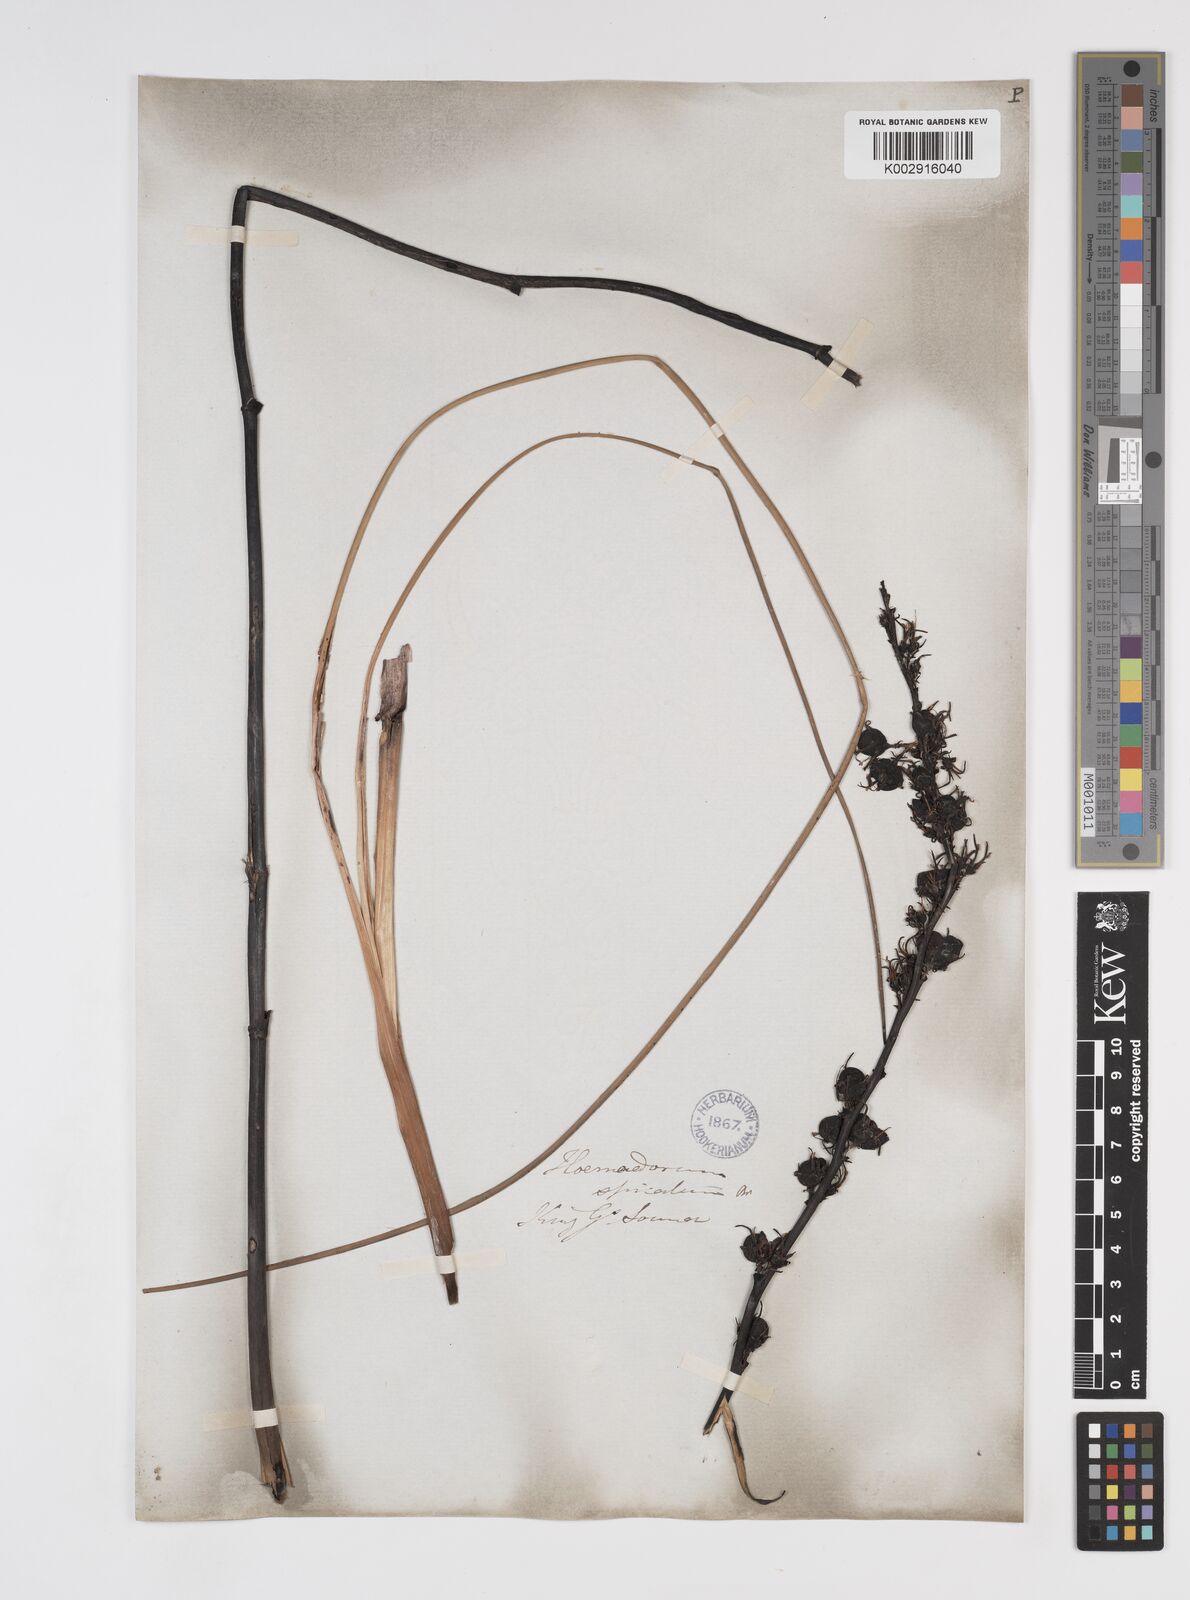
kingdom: Plantae
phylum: Tracheophyta
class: Liliopsida
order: Commelinales
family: Haemodoraceae
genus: Haemodorum
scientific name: Haemodorum spicatum
